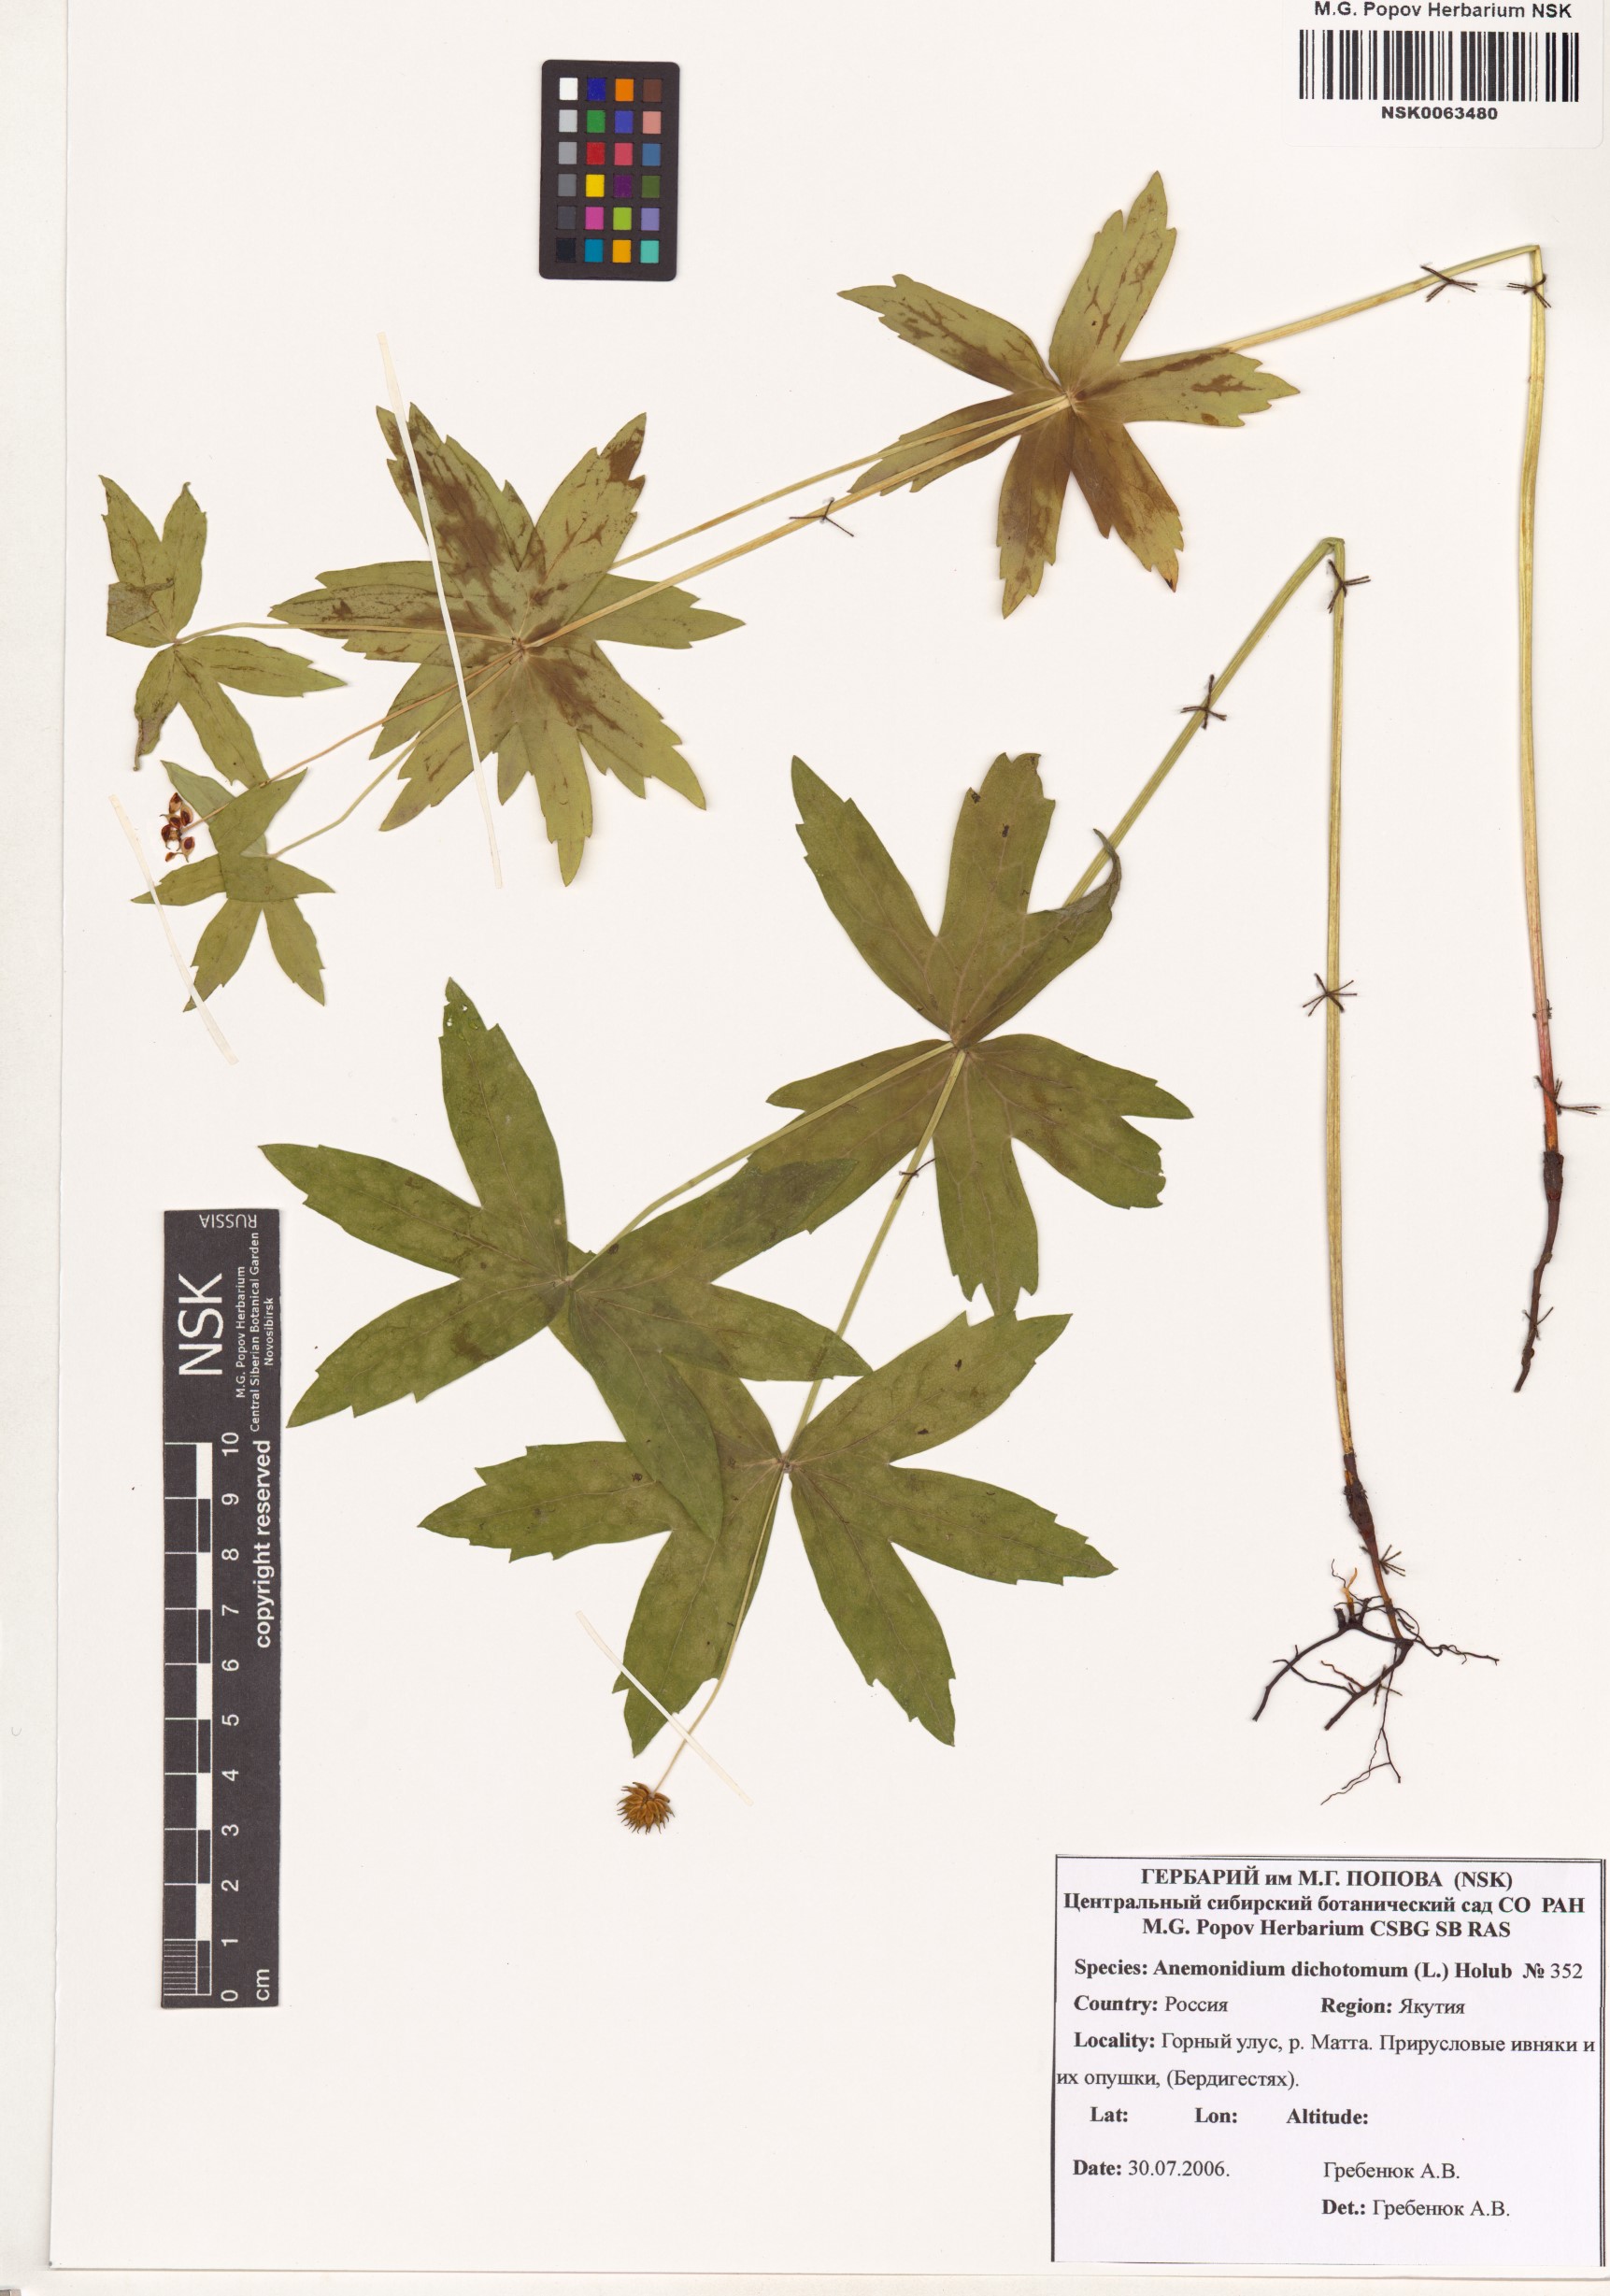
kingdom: Plantae
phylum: Tracheophyta
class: Magnoliopsida
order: Ranunculales
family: Ranunculaceae
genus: Anemonastrum
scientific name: Anemonastrum dichotomum
